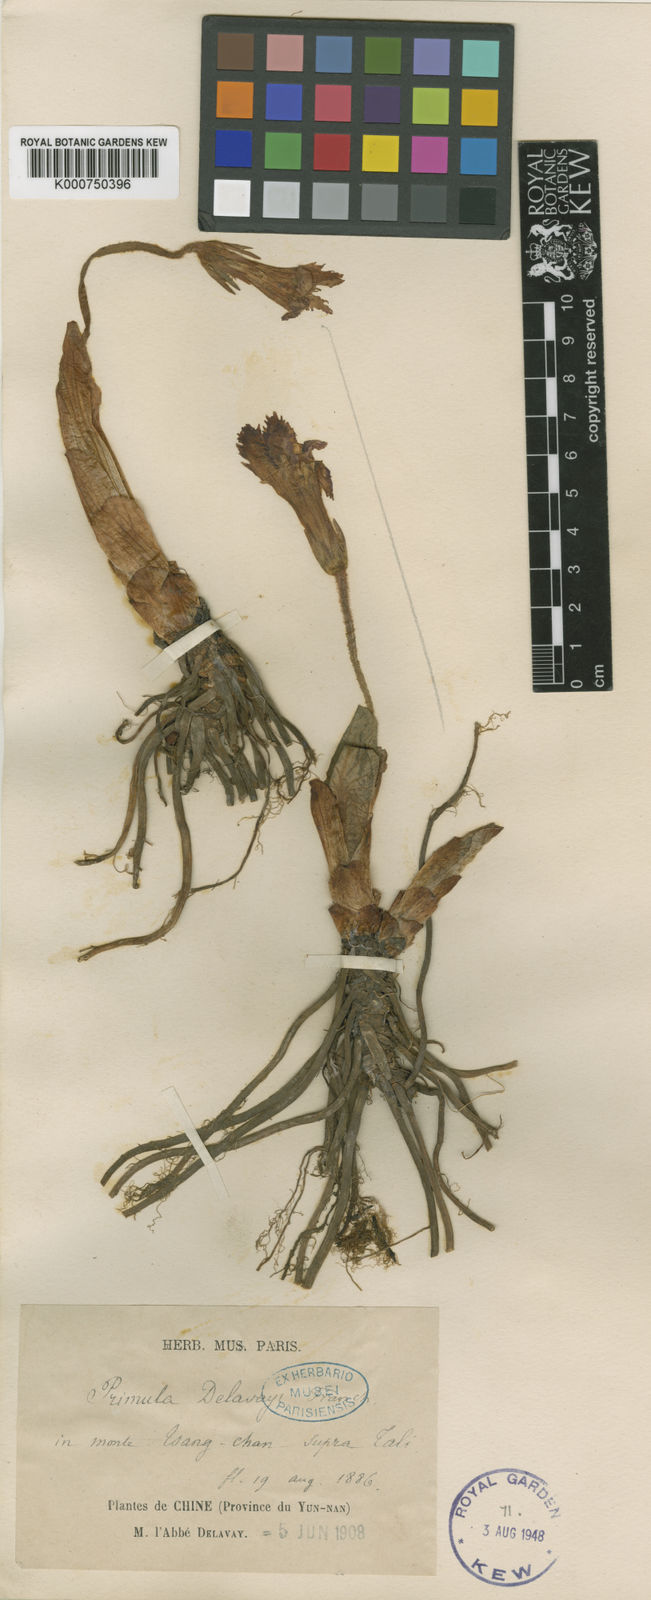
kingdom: Plantae
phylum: Tracheophyta
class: Magnoliopsida
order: Ericales
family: Primulaceae
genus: Omphalogramma
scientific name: Omphalogramma delavayi
